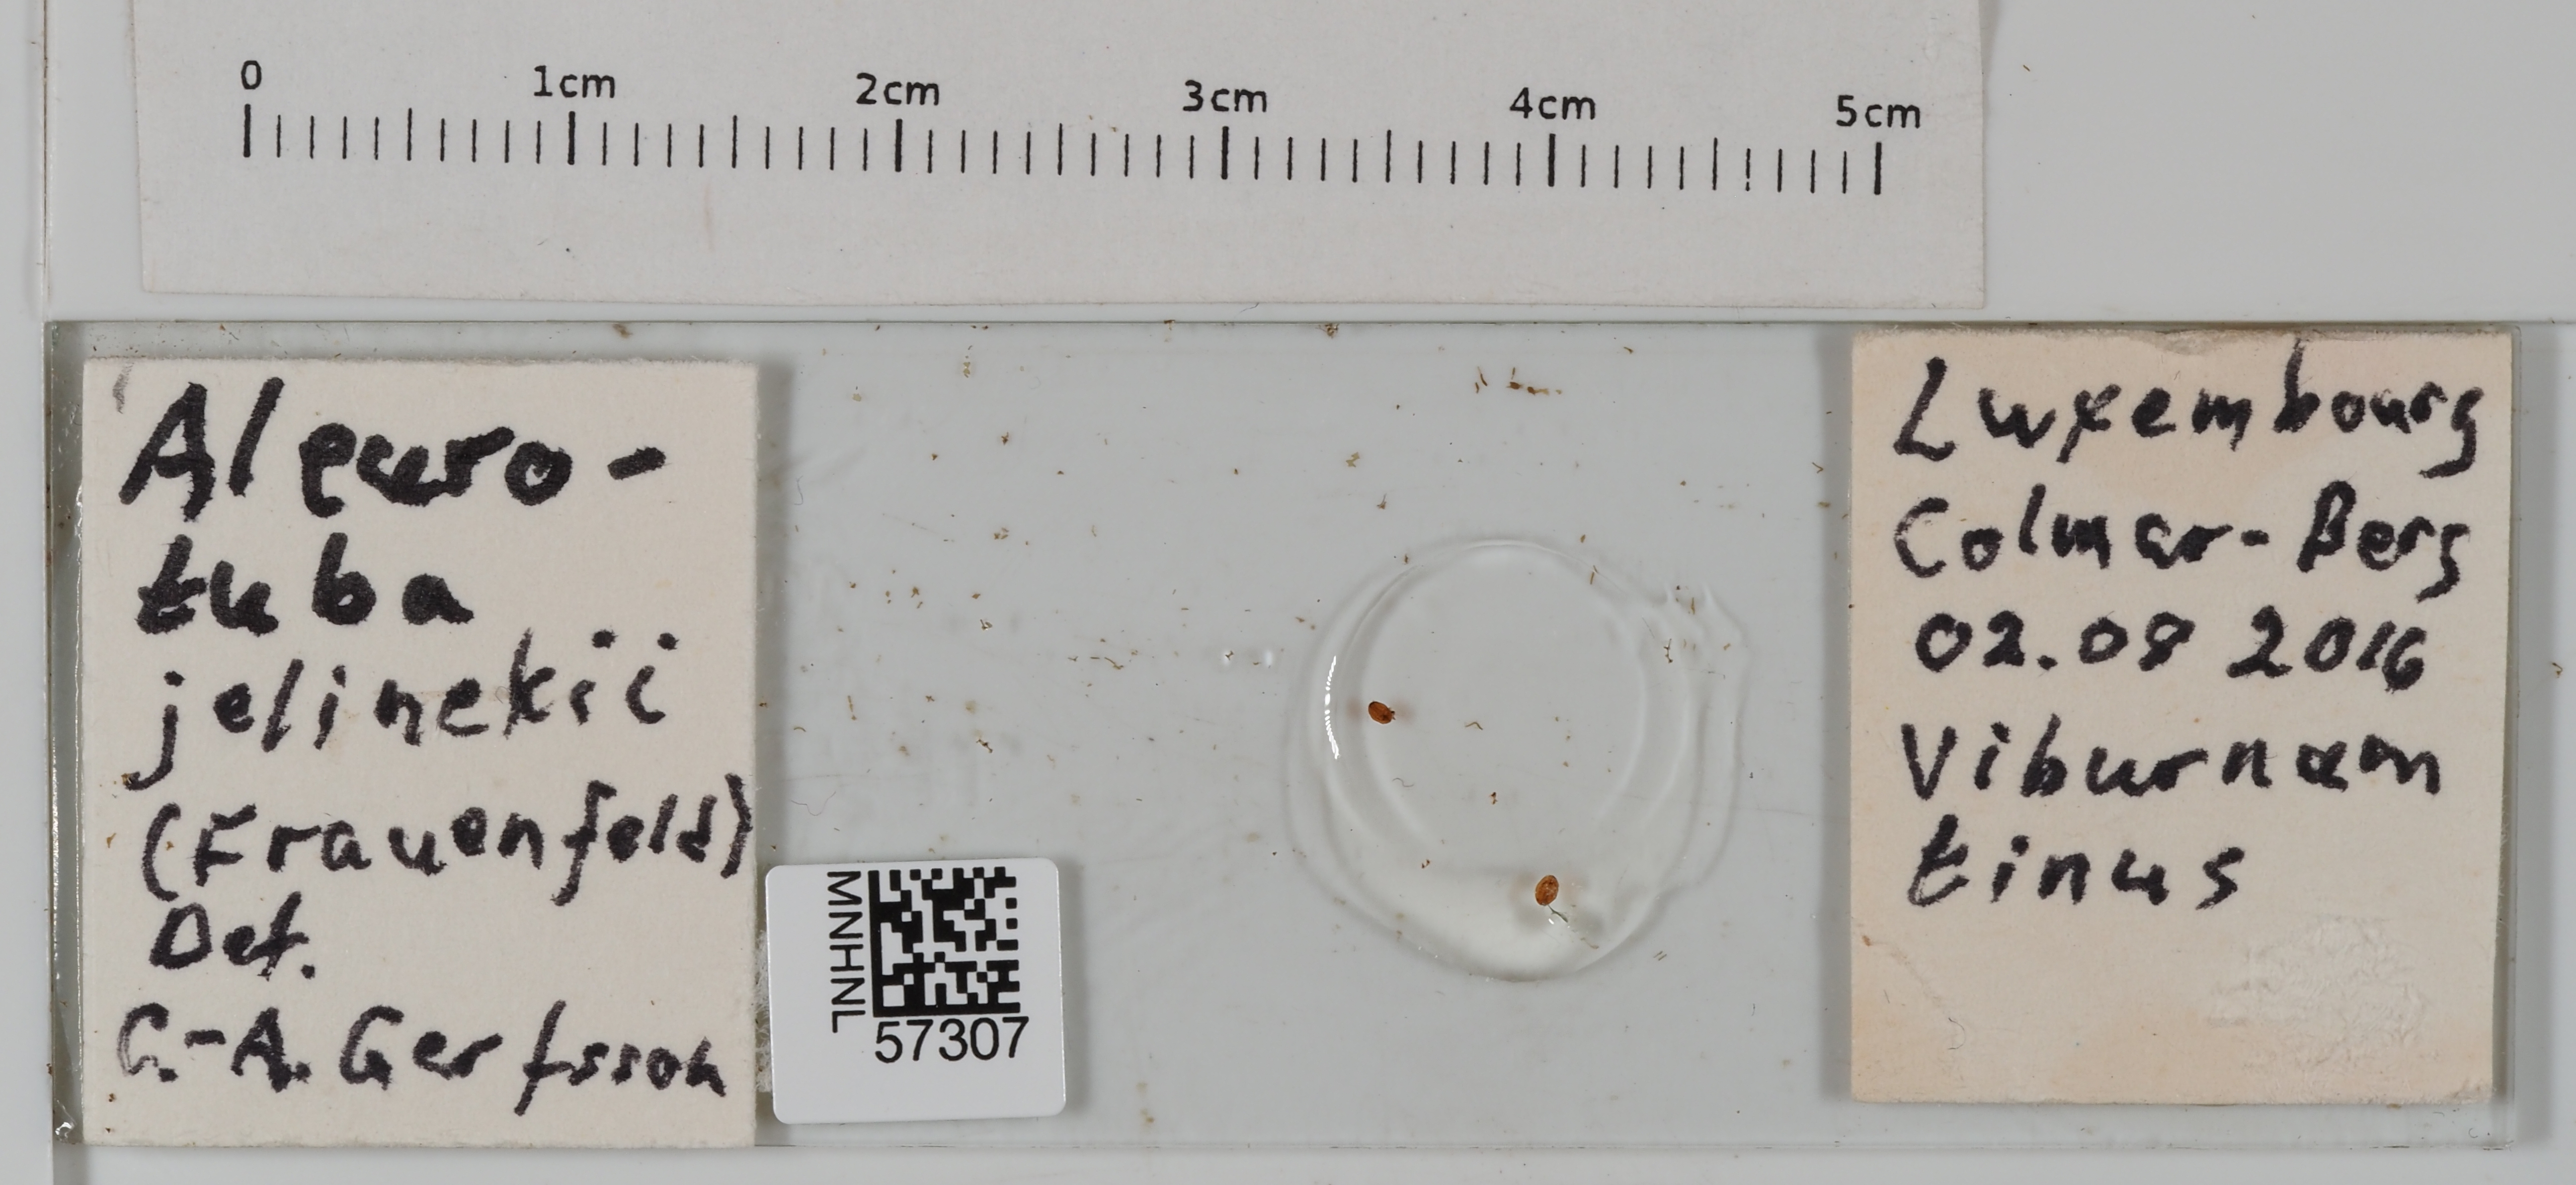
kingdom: Animalia
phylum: Arthropoda
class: Insecta
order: Hemiptera
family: Aleyrodidae
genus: Aleurotuba
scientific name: Aleurotuba jelinekii
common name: Whitefly
